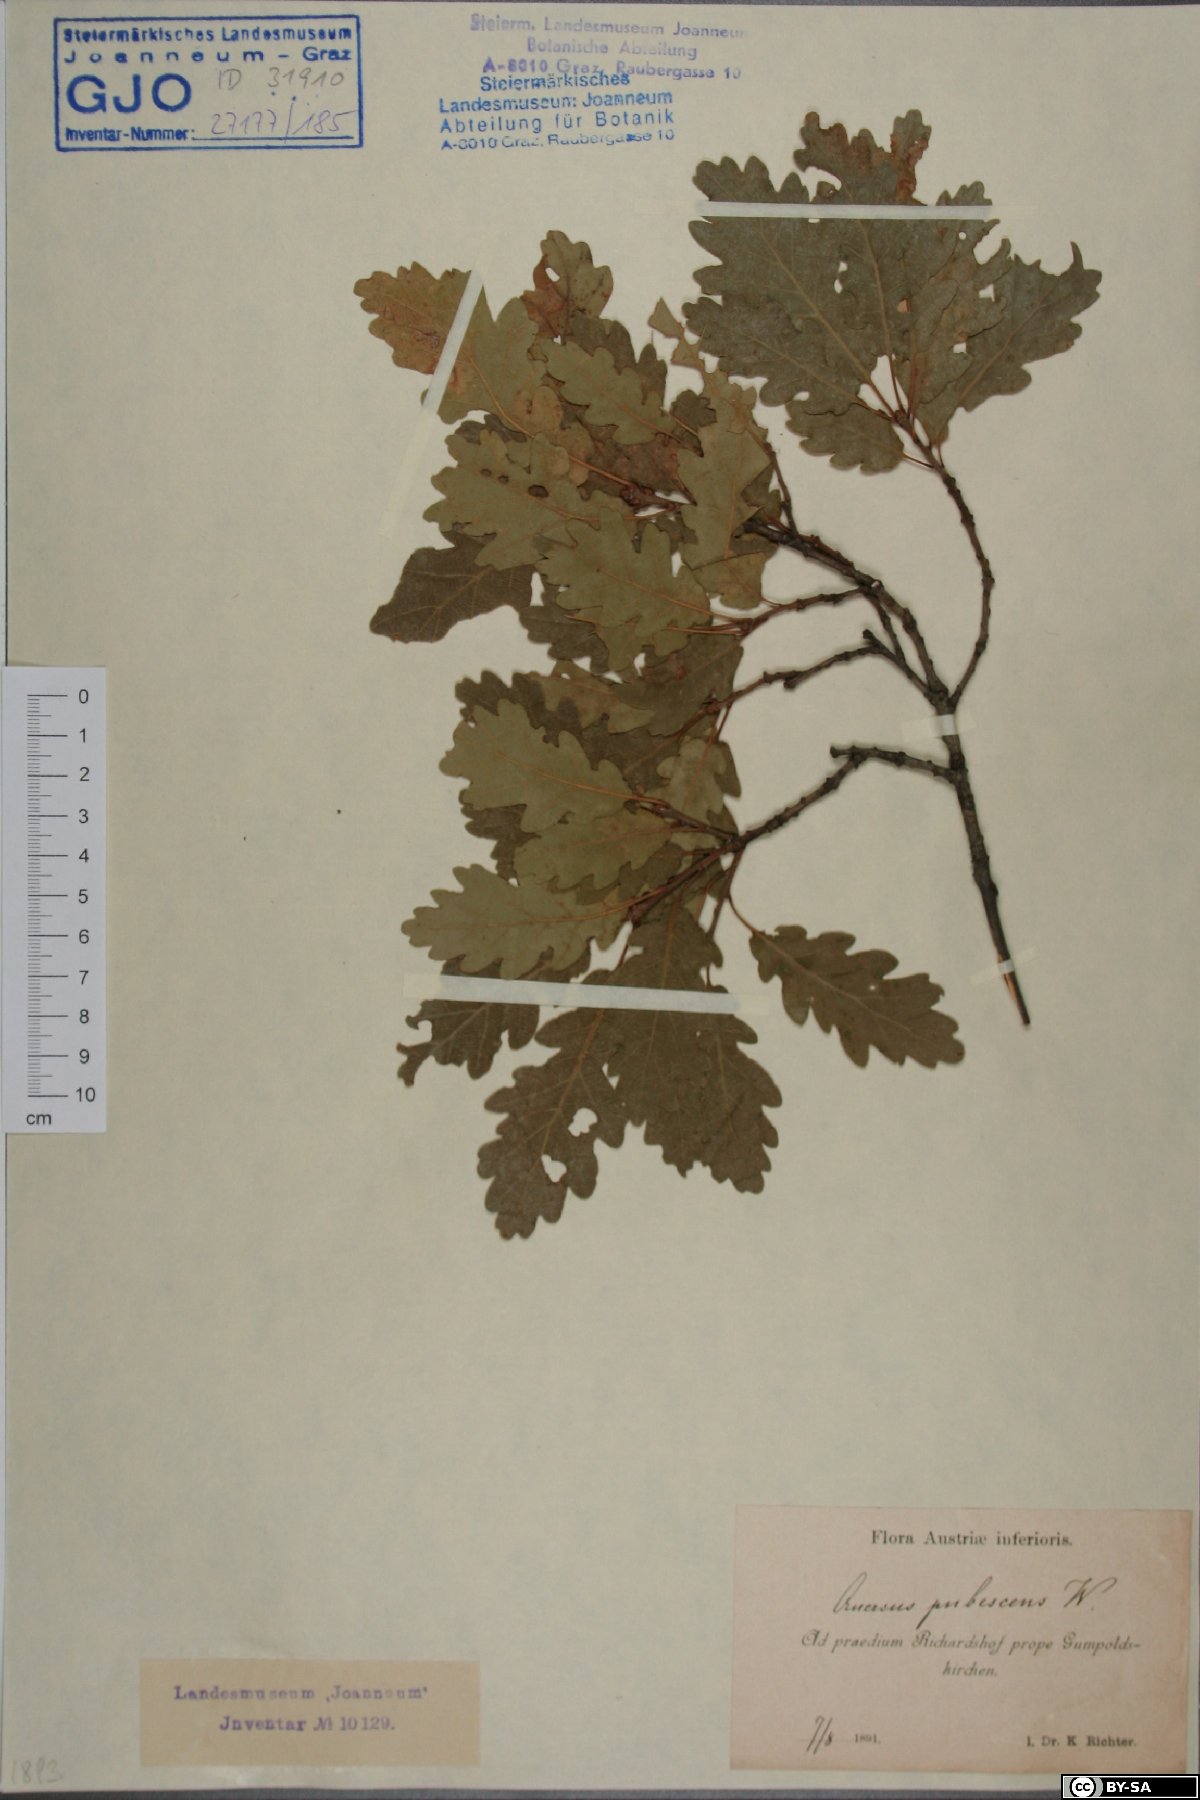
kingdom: Plantae
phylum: Tracheophyta
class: Magnoliopsida
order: Fagales
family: Fagaceae
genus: Quercus
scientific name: Quercus pubescens
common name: Downy oak
